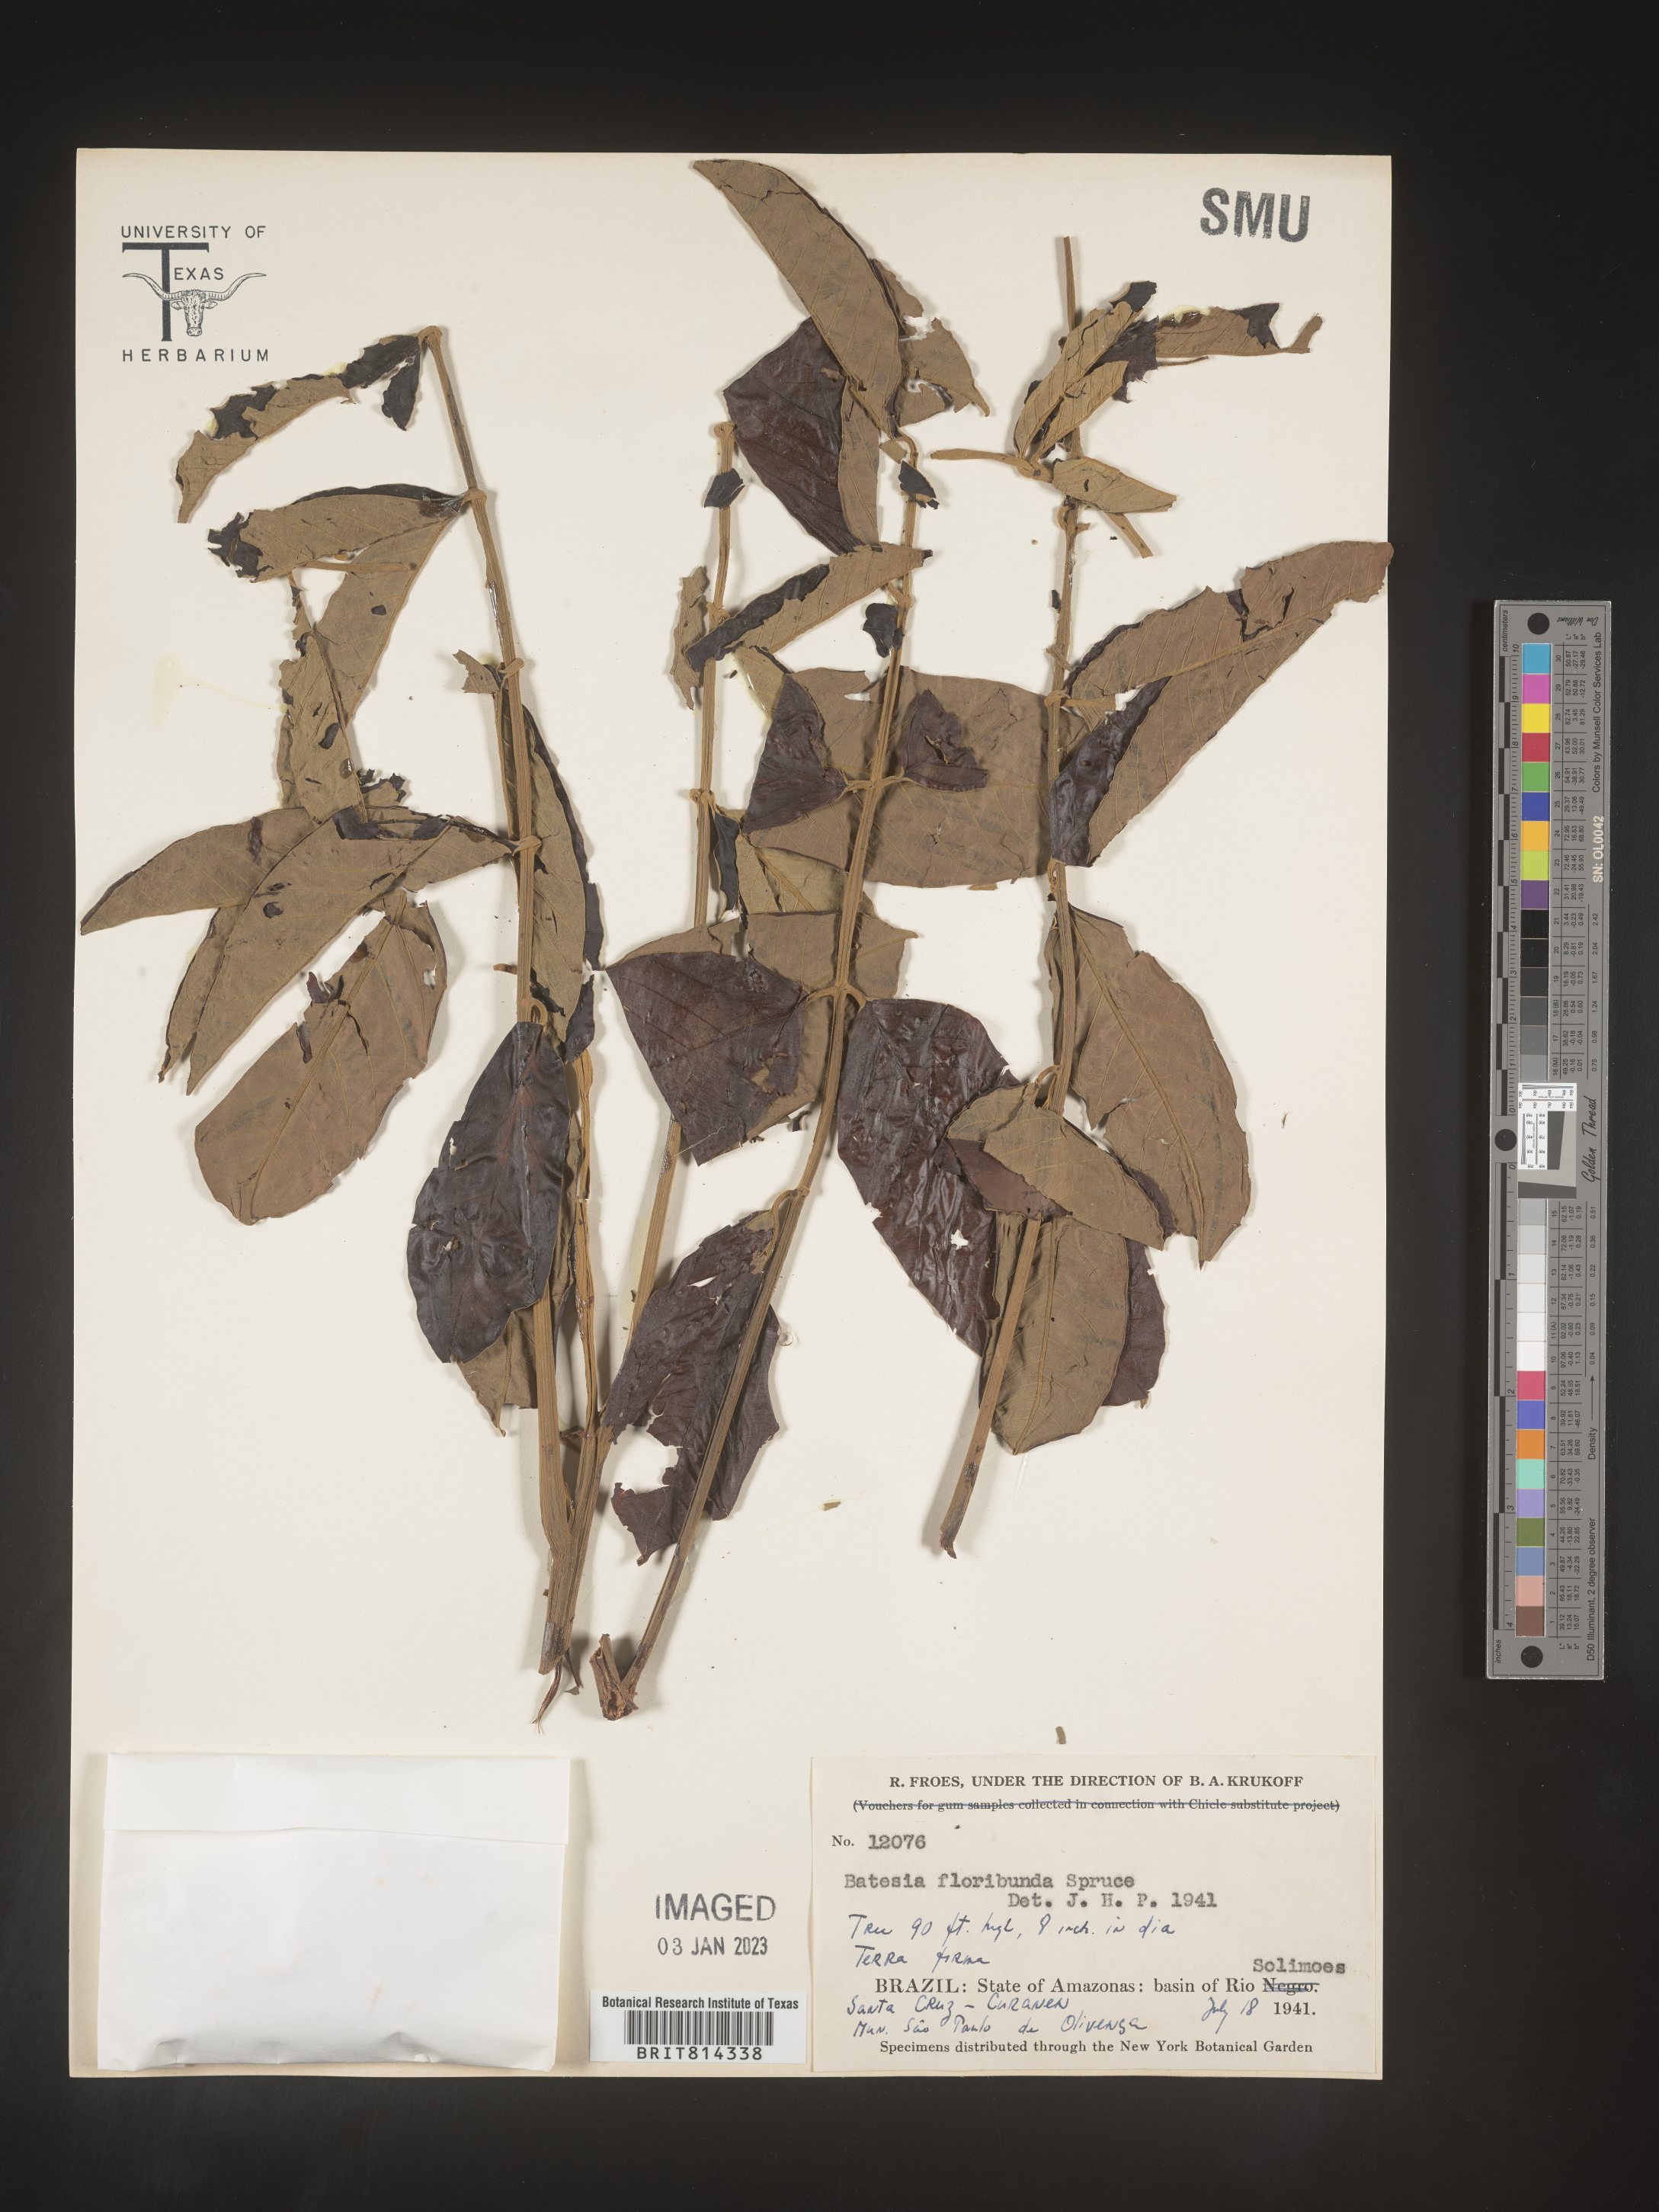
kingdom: Plantae
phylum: Tracheophyta
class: Magnoliopsida
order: Fabales
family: Fabaceae
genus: Batesia
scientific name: Batesia floribunda
